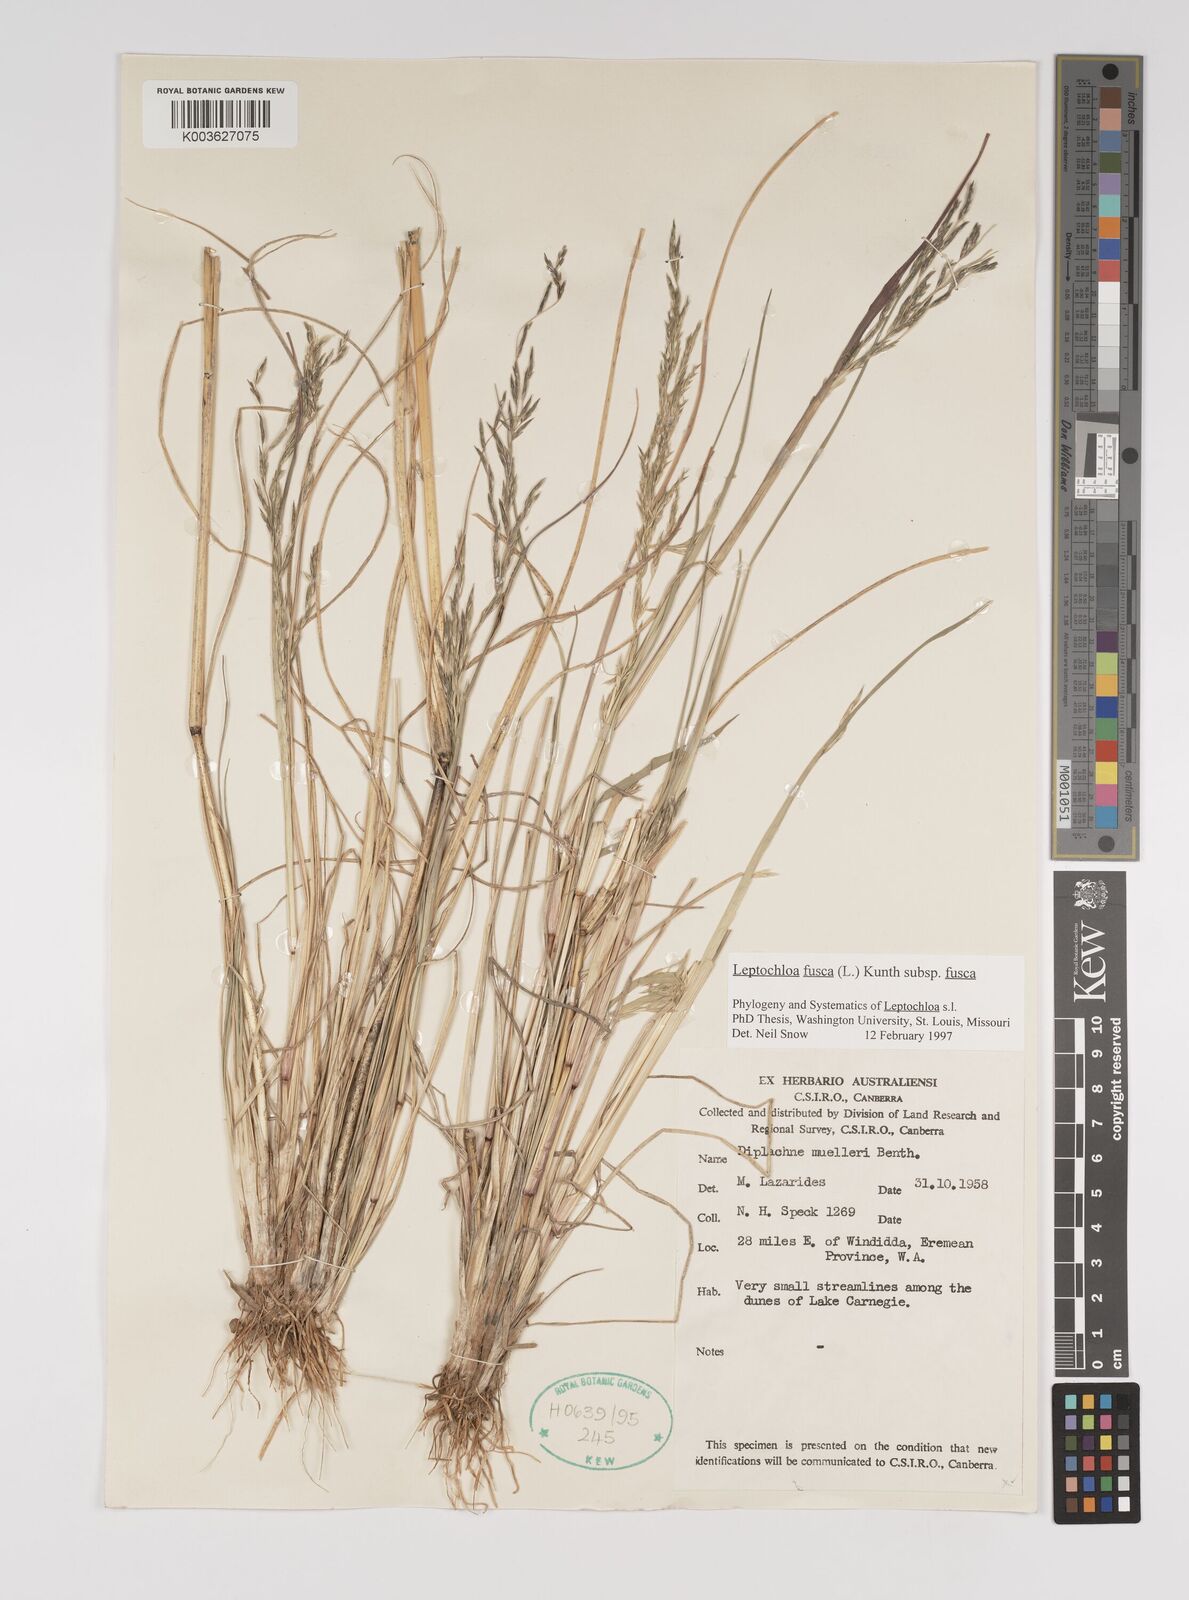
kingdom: Plantae
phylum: Tracheophyta
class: Liliopsida
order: Poales
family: Poaceae
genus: Diplachne
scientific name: Diplachne fusca
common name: Brown beetle grass
